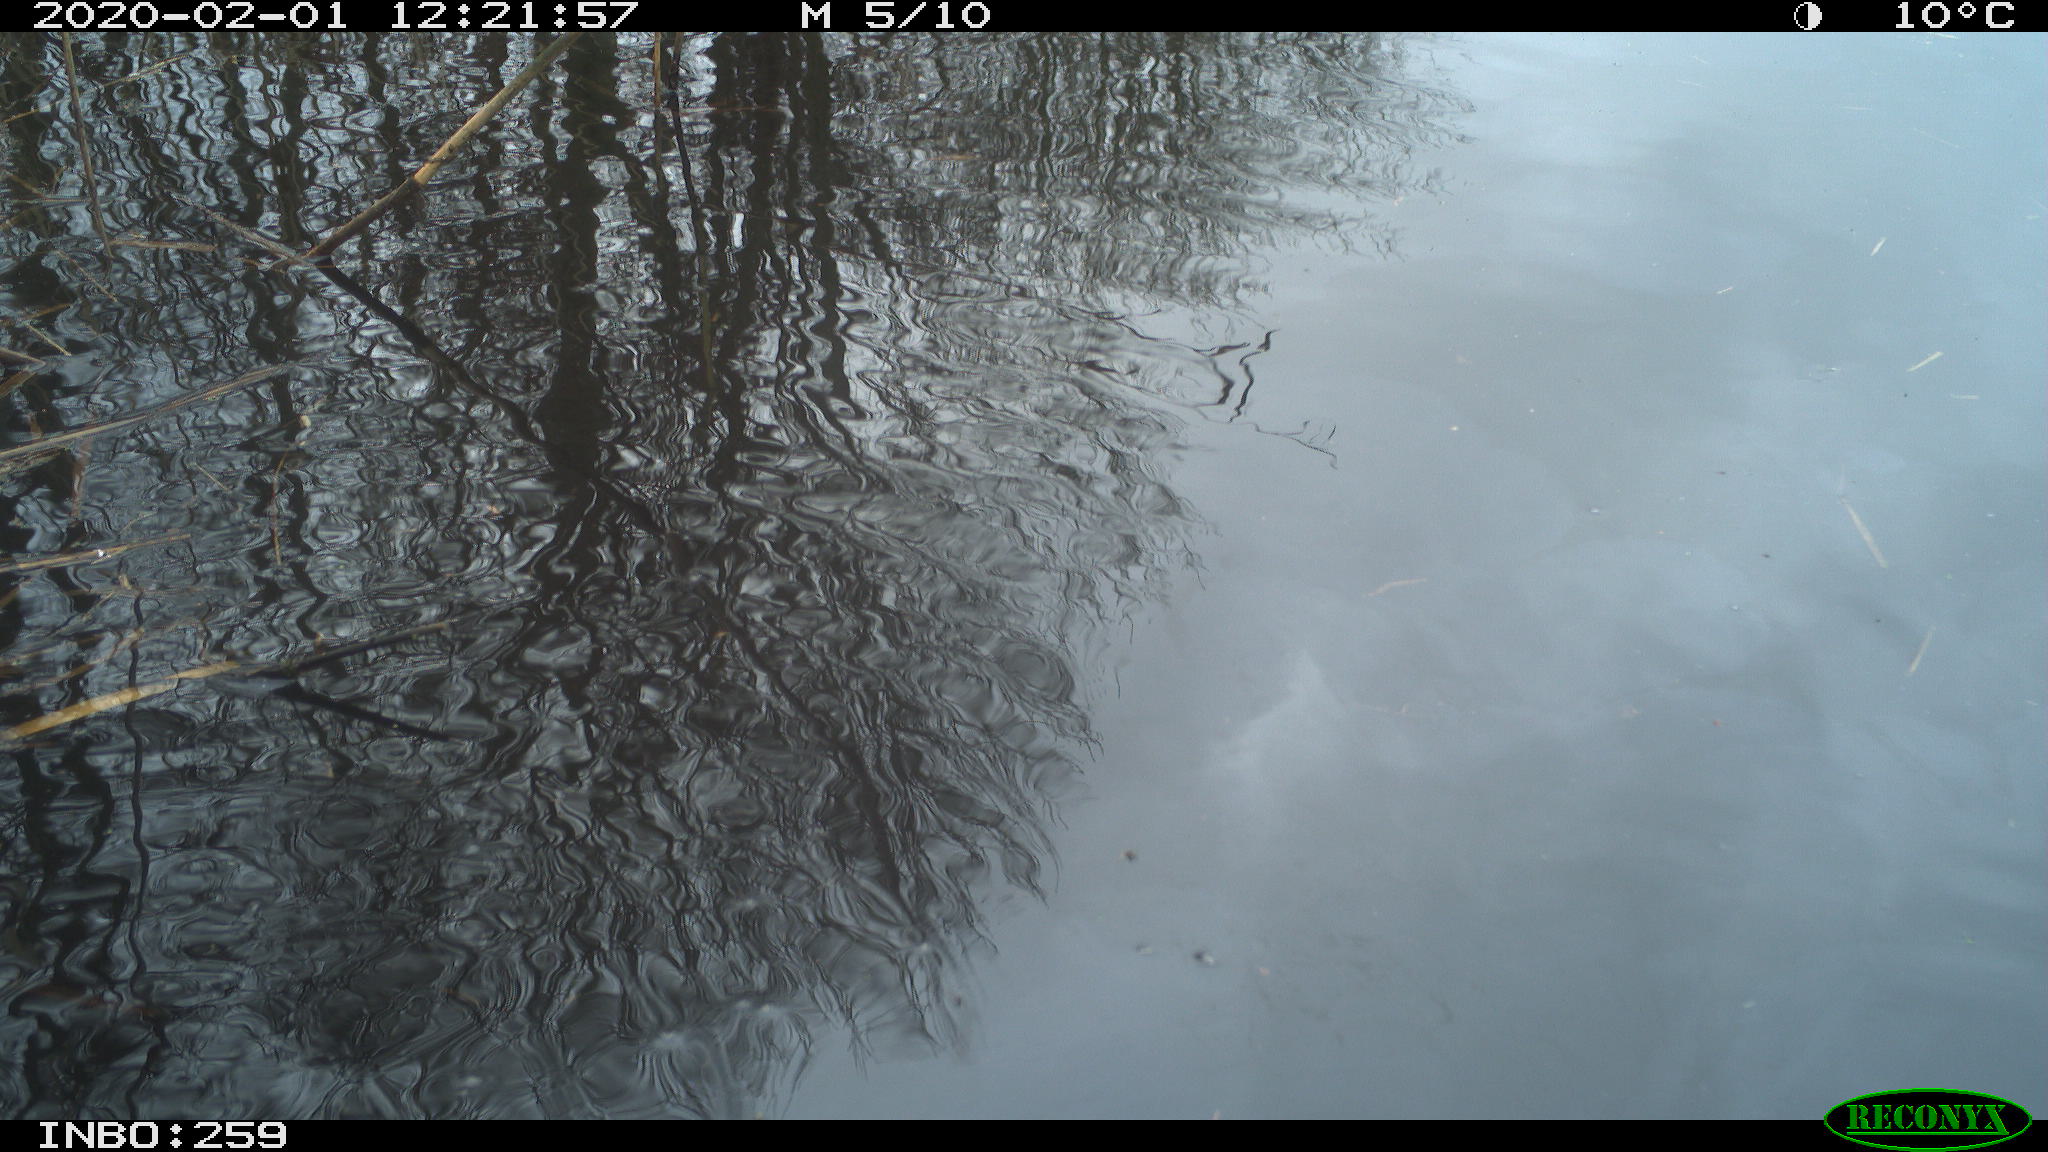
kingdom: Animalia
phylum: Chordata
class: Aves
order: Gruiformes
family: Rallidae
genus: Gallinula
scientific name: Gallinula chloropus
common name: Common moorhen
